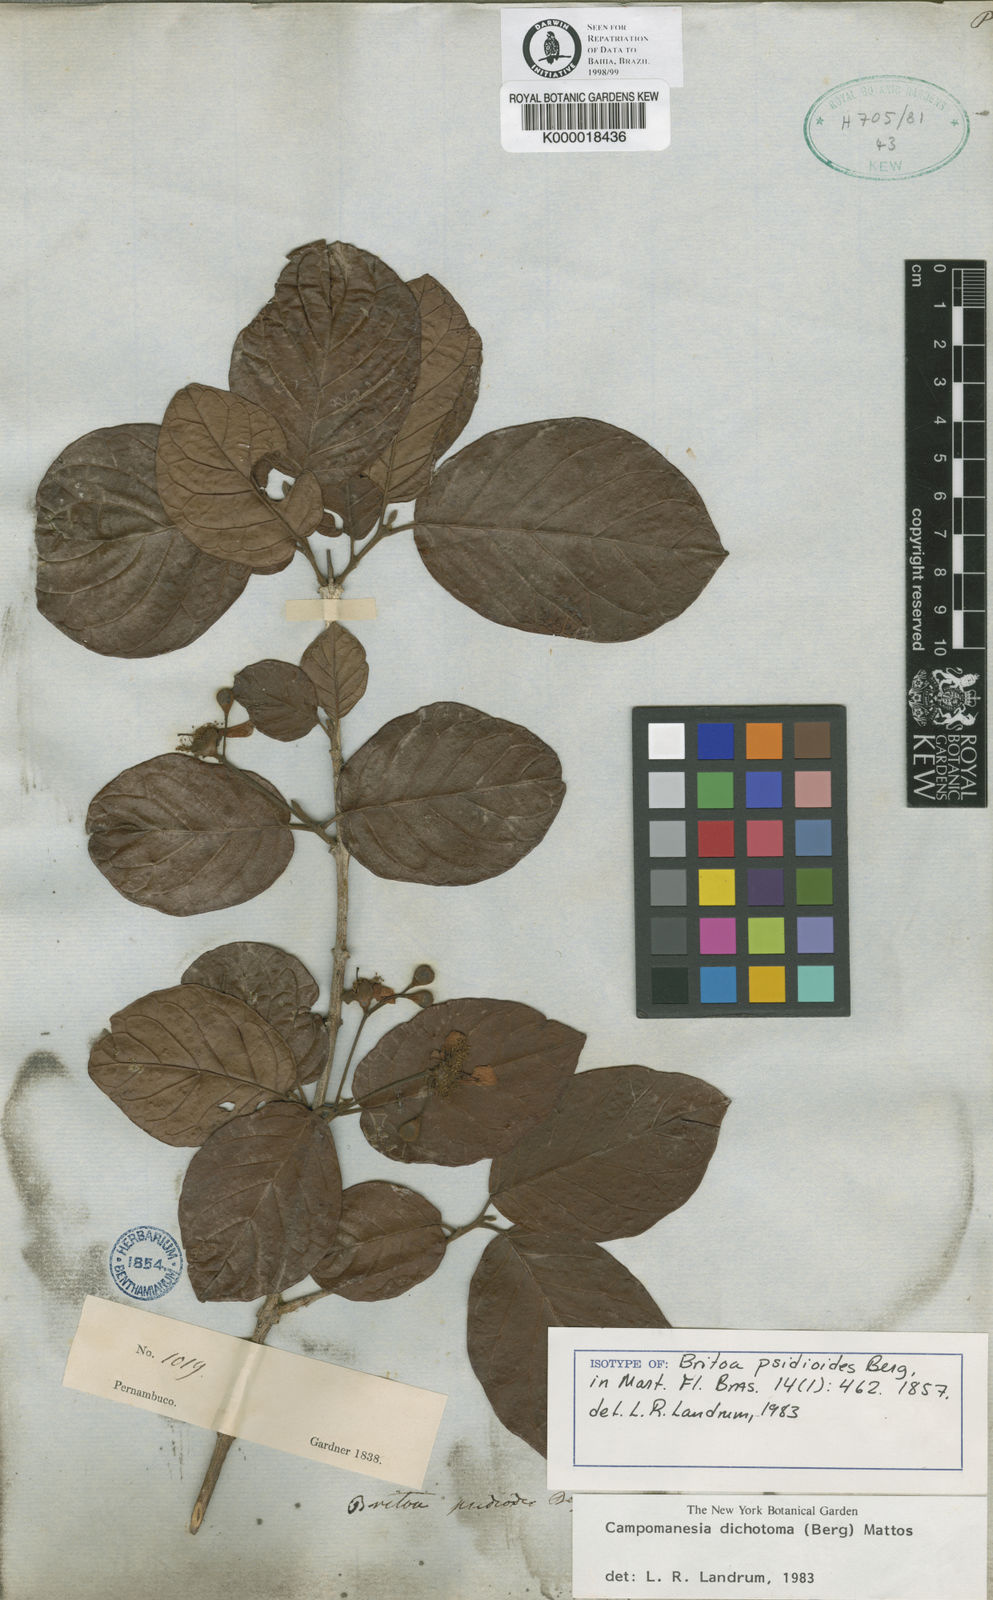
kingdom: Plantae
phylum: Tracheophyta
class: Magnoliopsida
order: Myrtales
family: Myrtaceae
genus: Campomanesia
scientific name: Campomanesia dichotoma
